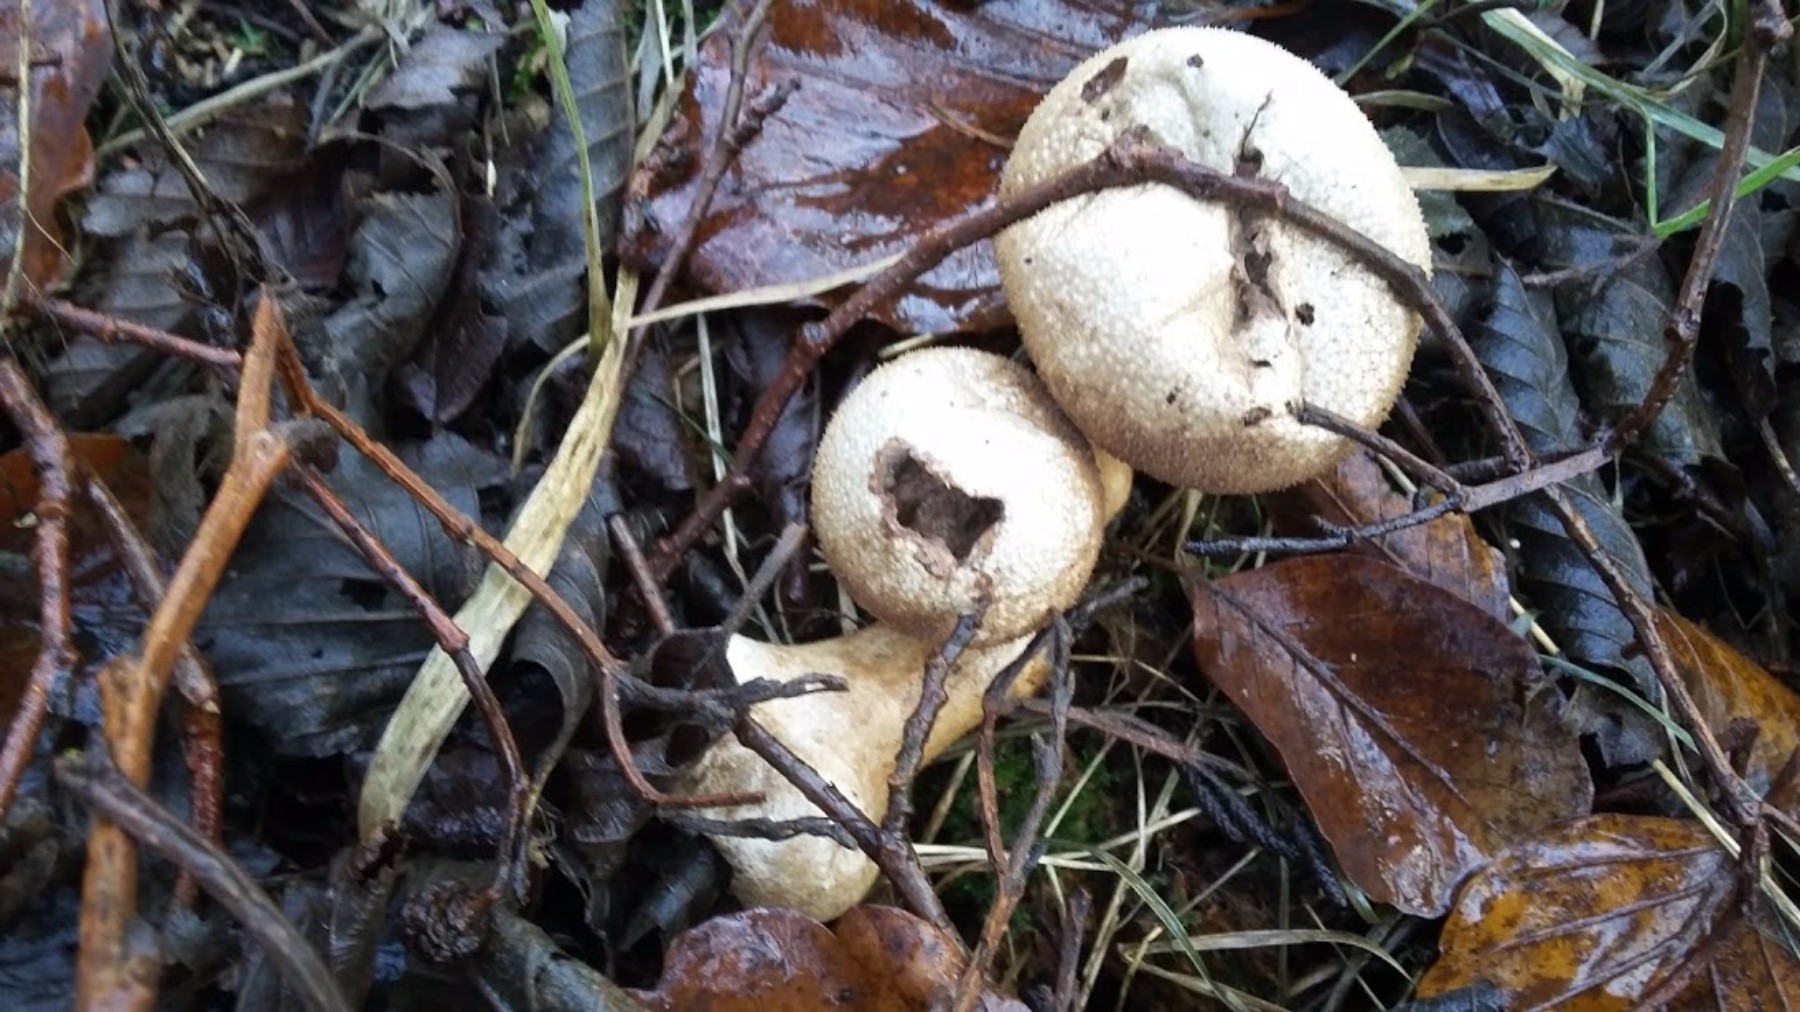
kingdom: Fungi
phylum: Basidiomycota
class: Agaricomycetes
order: Agaricales
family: Lycoperdaceae
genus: Lycoperdon
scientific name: Lycoperdon perlatum
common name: krystal-støvbold
